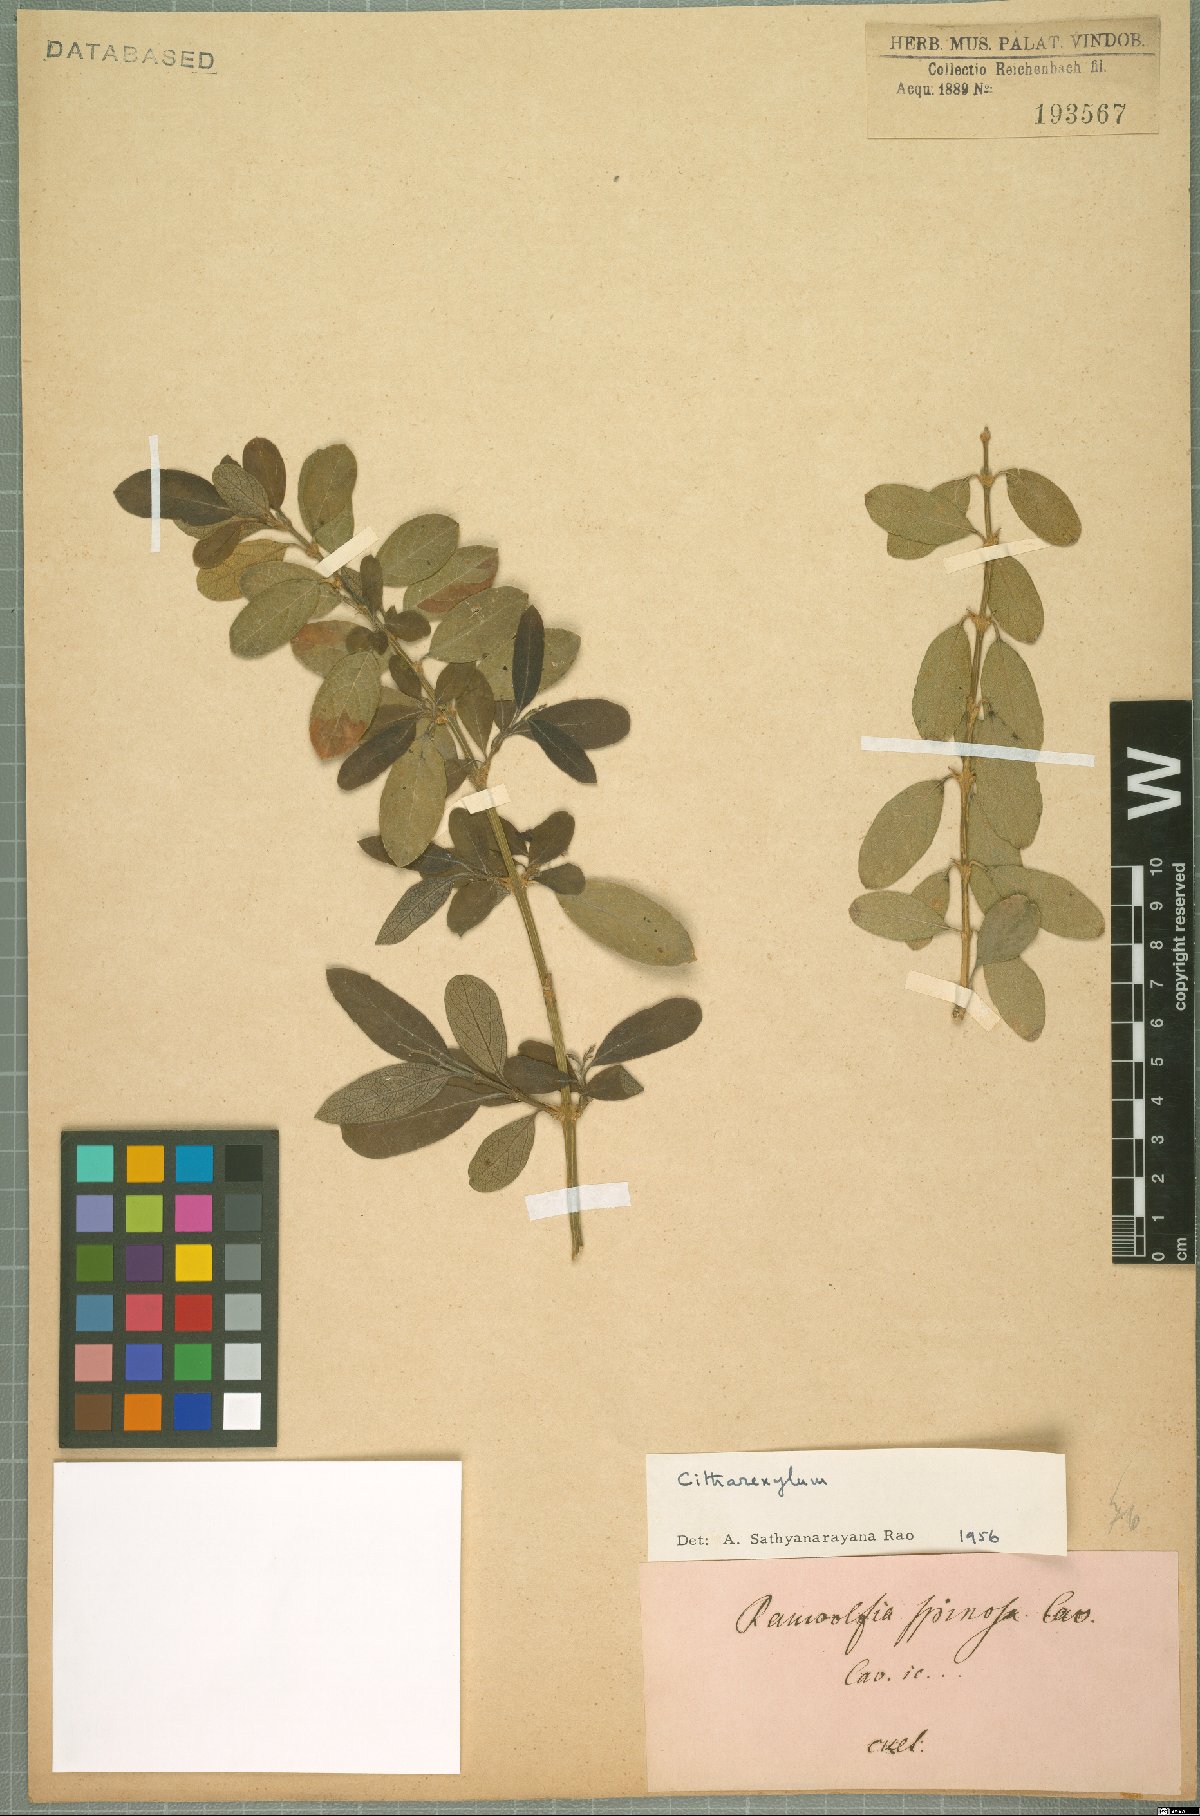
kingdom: Plantae
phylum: Tracheophyta
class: Magnoliopsida
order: Lamiales
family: Verbenaceae
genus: Citharexylum
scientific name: Citharexylum
